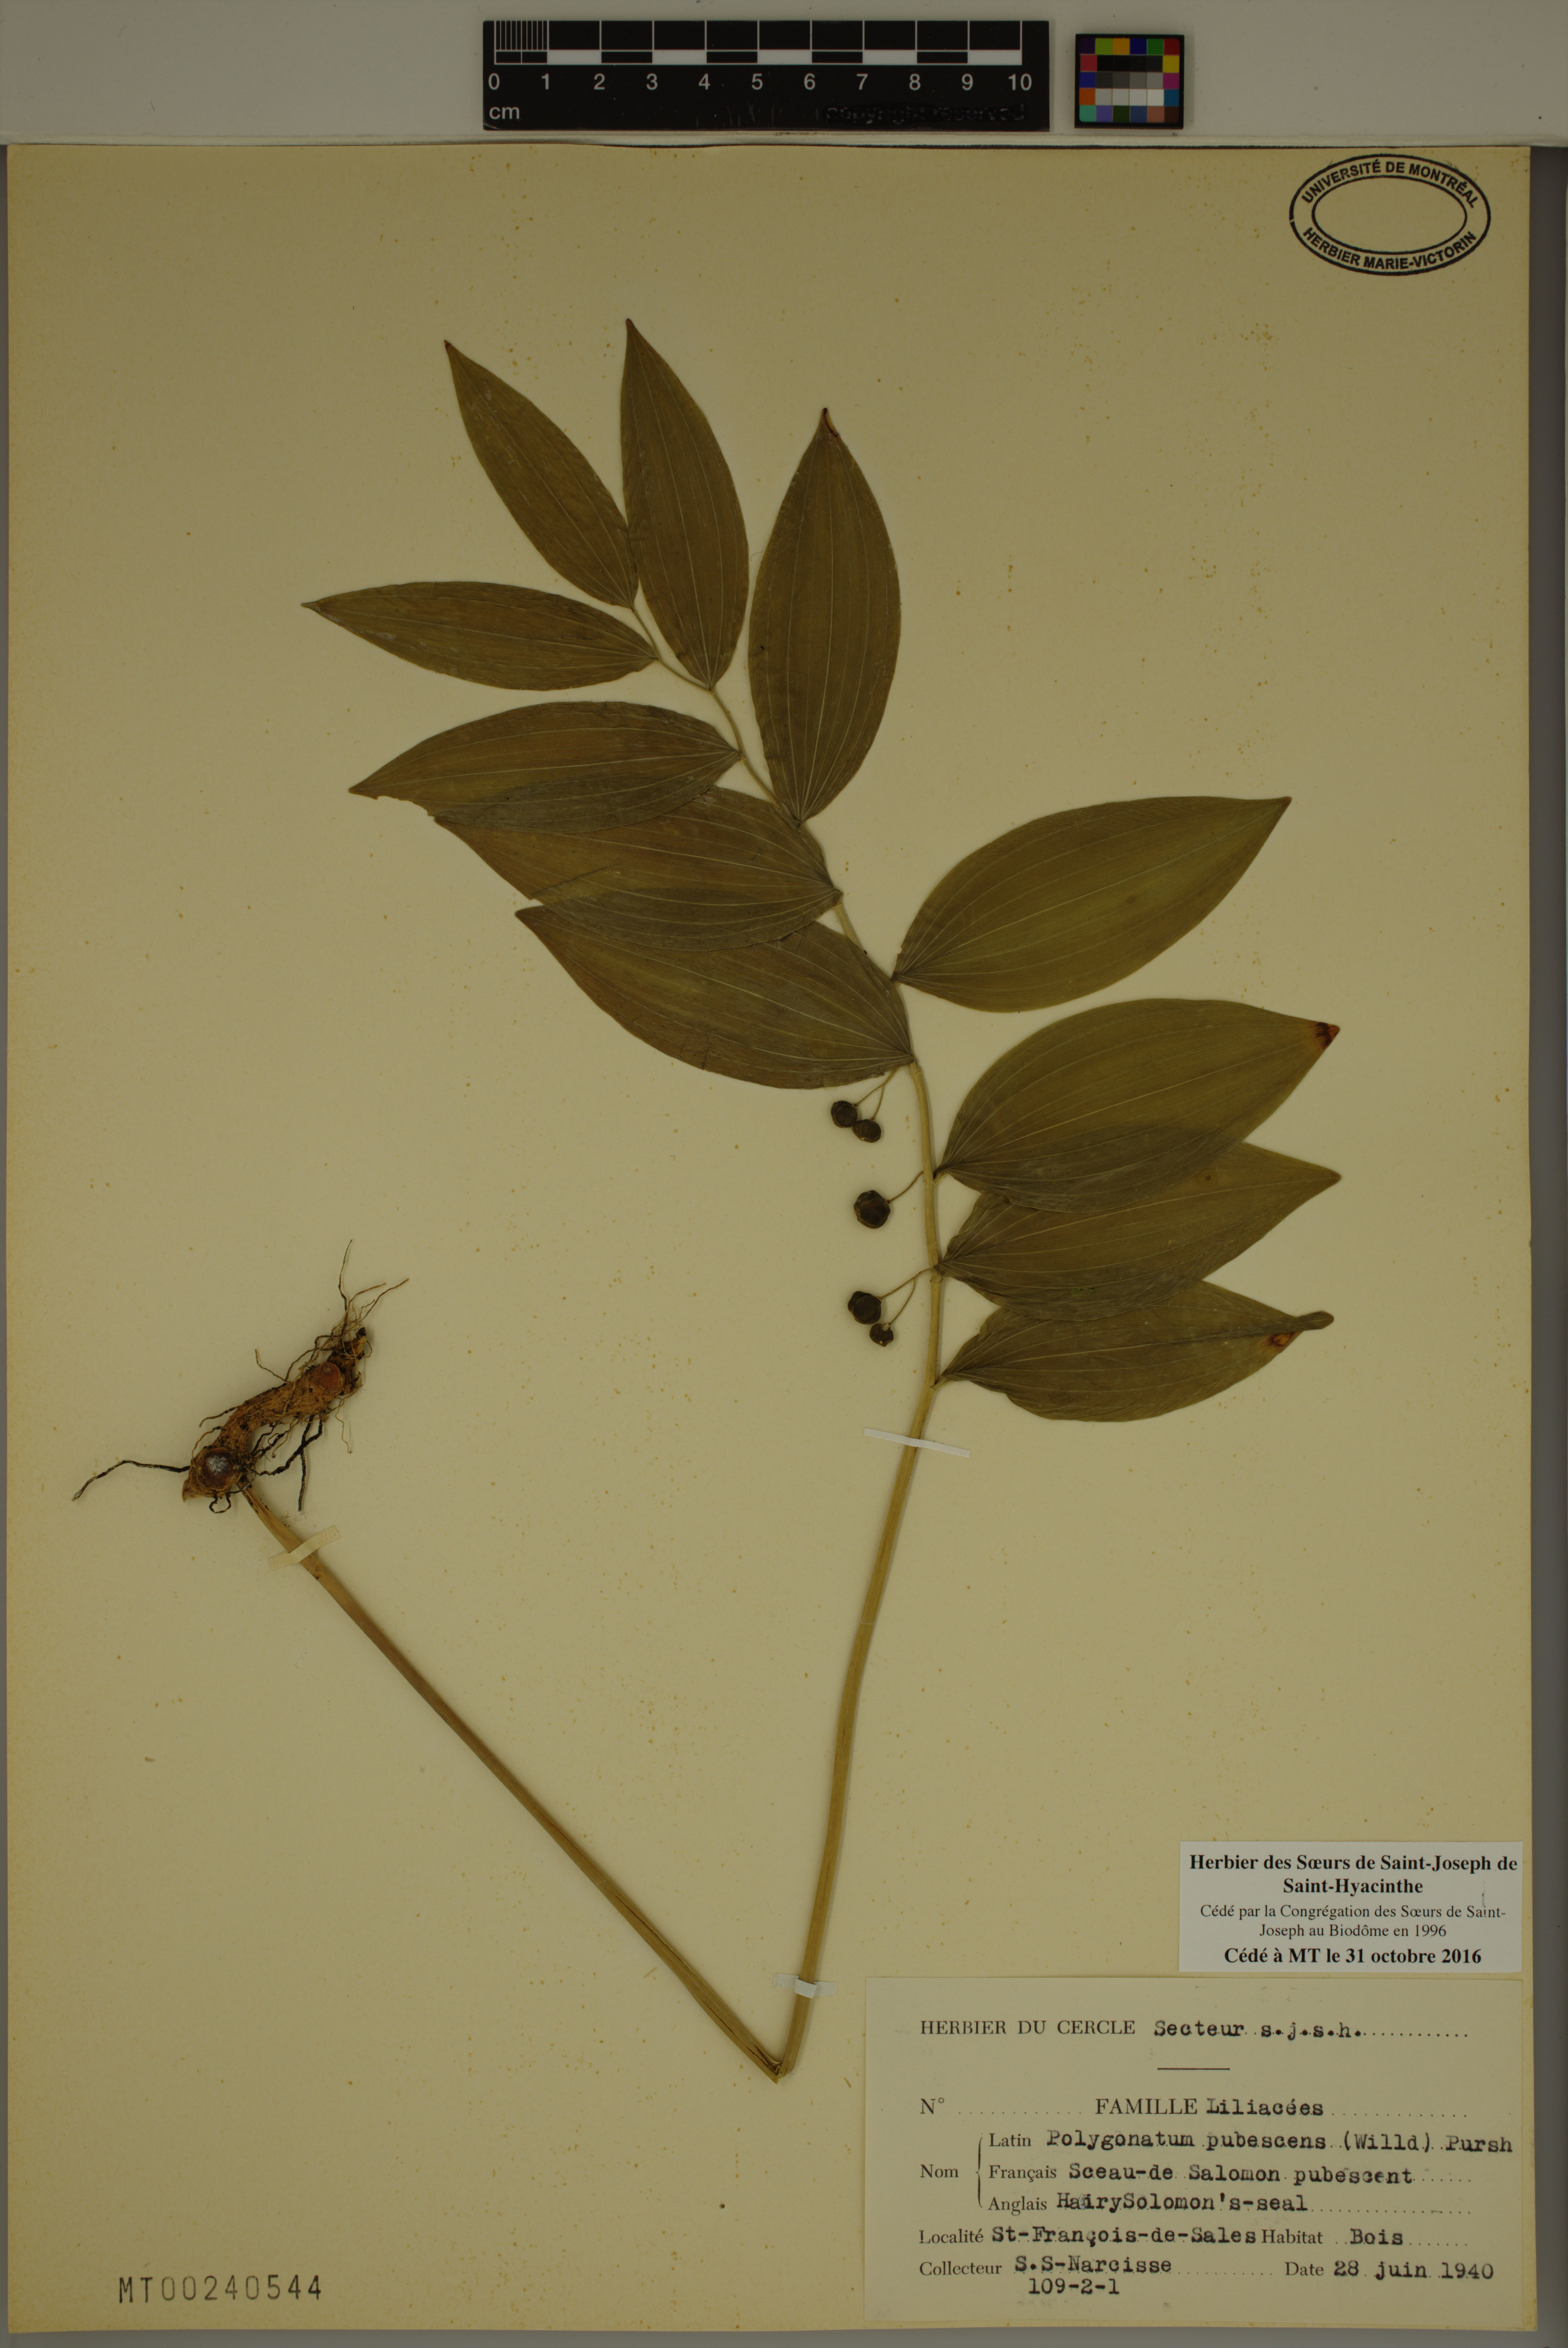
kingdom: Plantae
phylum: Tracheophyta
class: Liliopsida
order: Asparagales
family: Asparagaceae
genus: Polygonatum
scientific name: Polygonatum pubescens
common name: Downy solomon's seal
